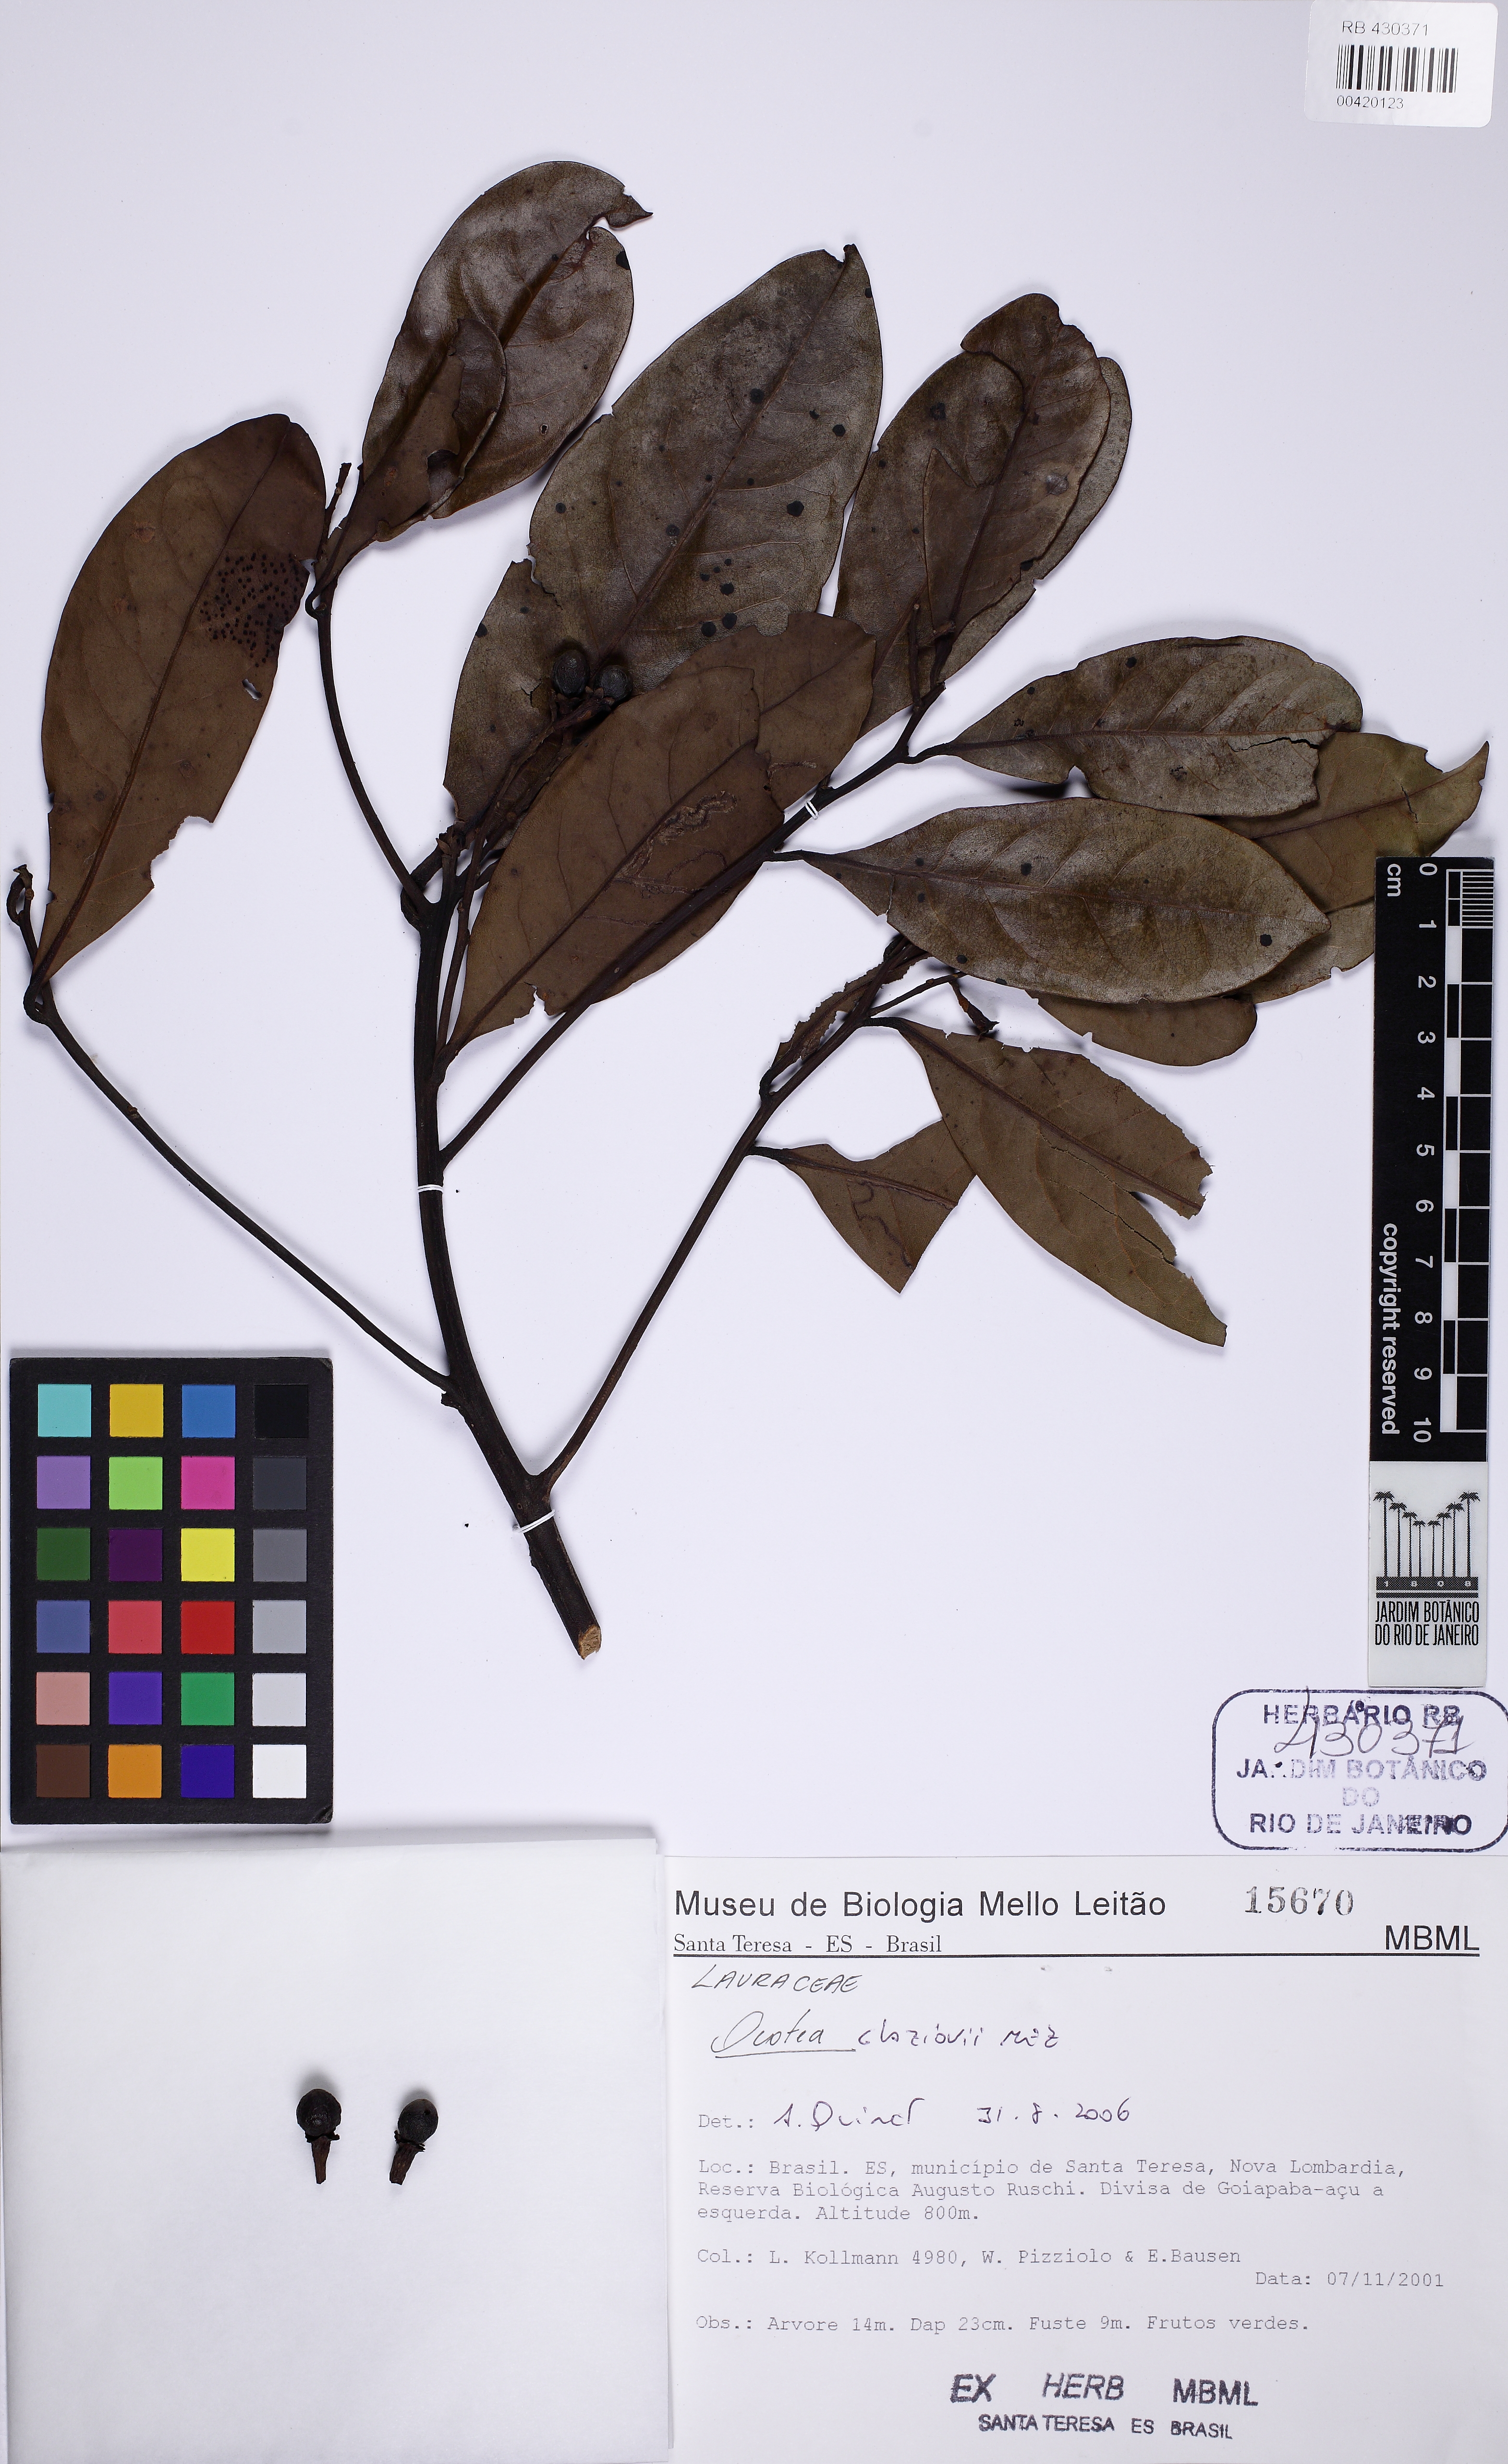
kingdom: Plantae
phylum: Tracheophyta
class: Magnoliopsida
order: Laurales
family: Lauraceae
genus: Ocotea
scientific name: Ocotea glaziovii
